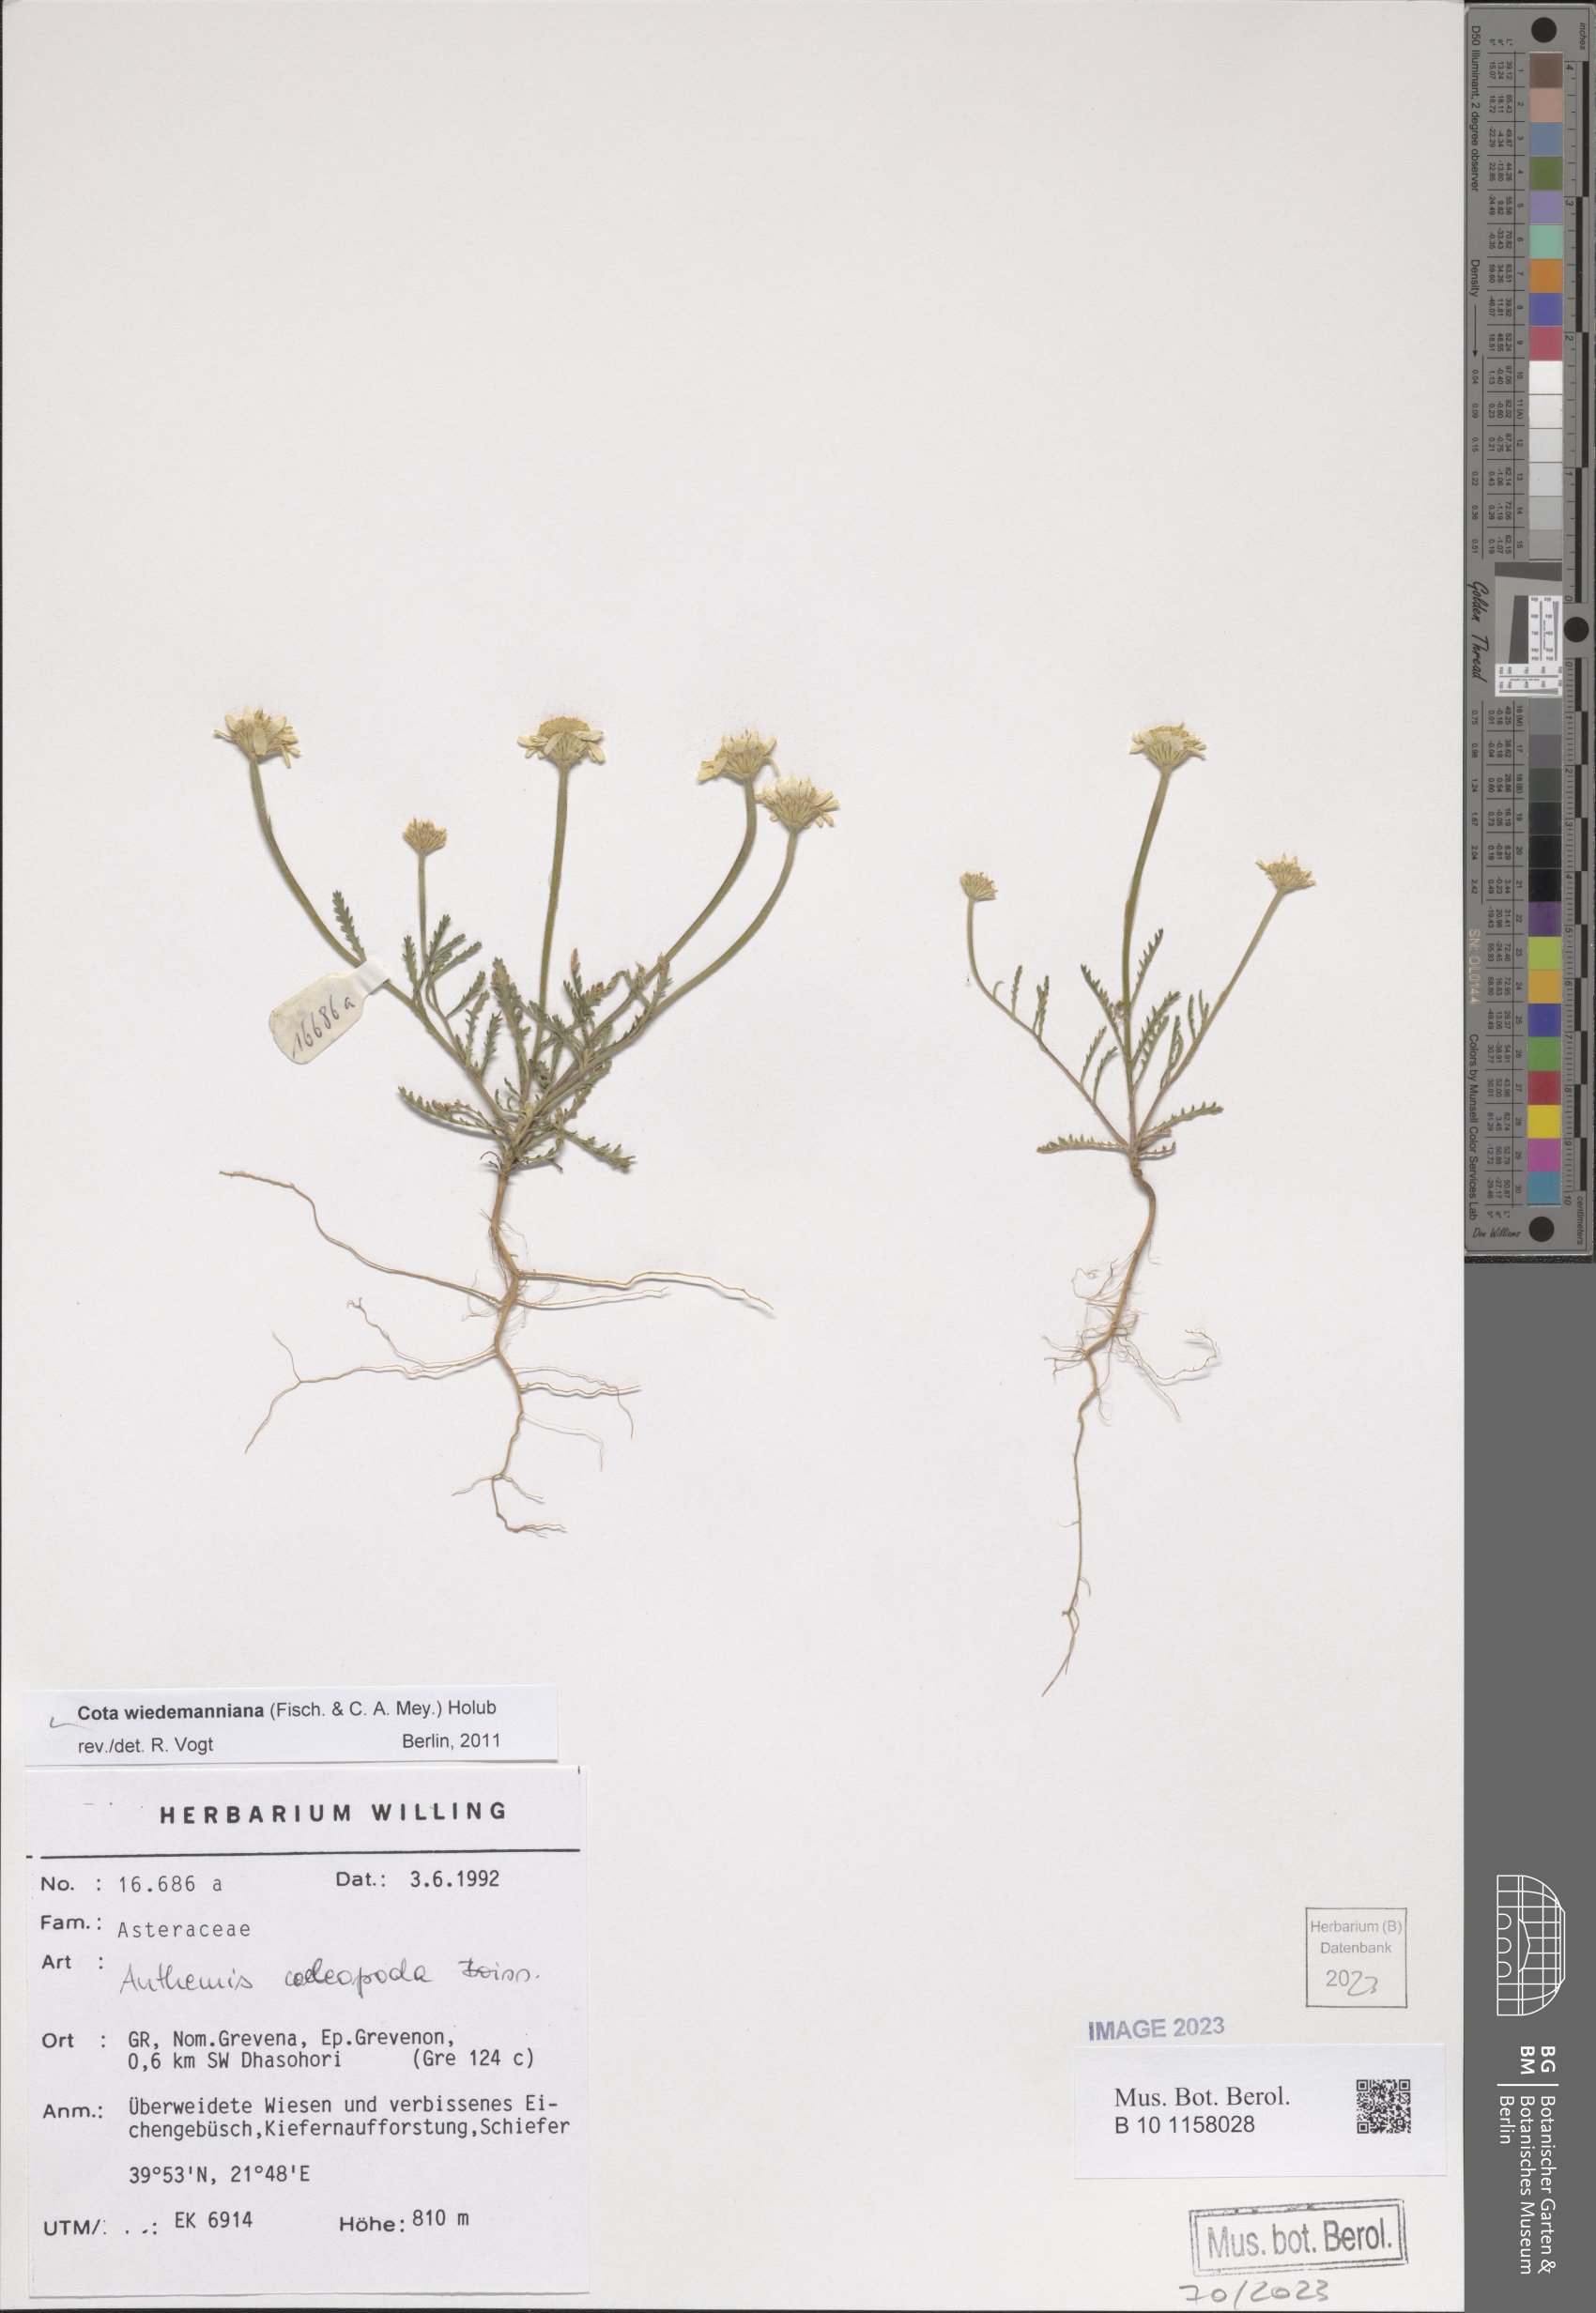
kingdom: Plantae
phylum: Tracheophyta
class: Magnoliopsida
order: Asterales
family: Asteraceae
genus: Cota
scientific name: Cota wiedemanniana
